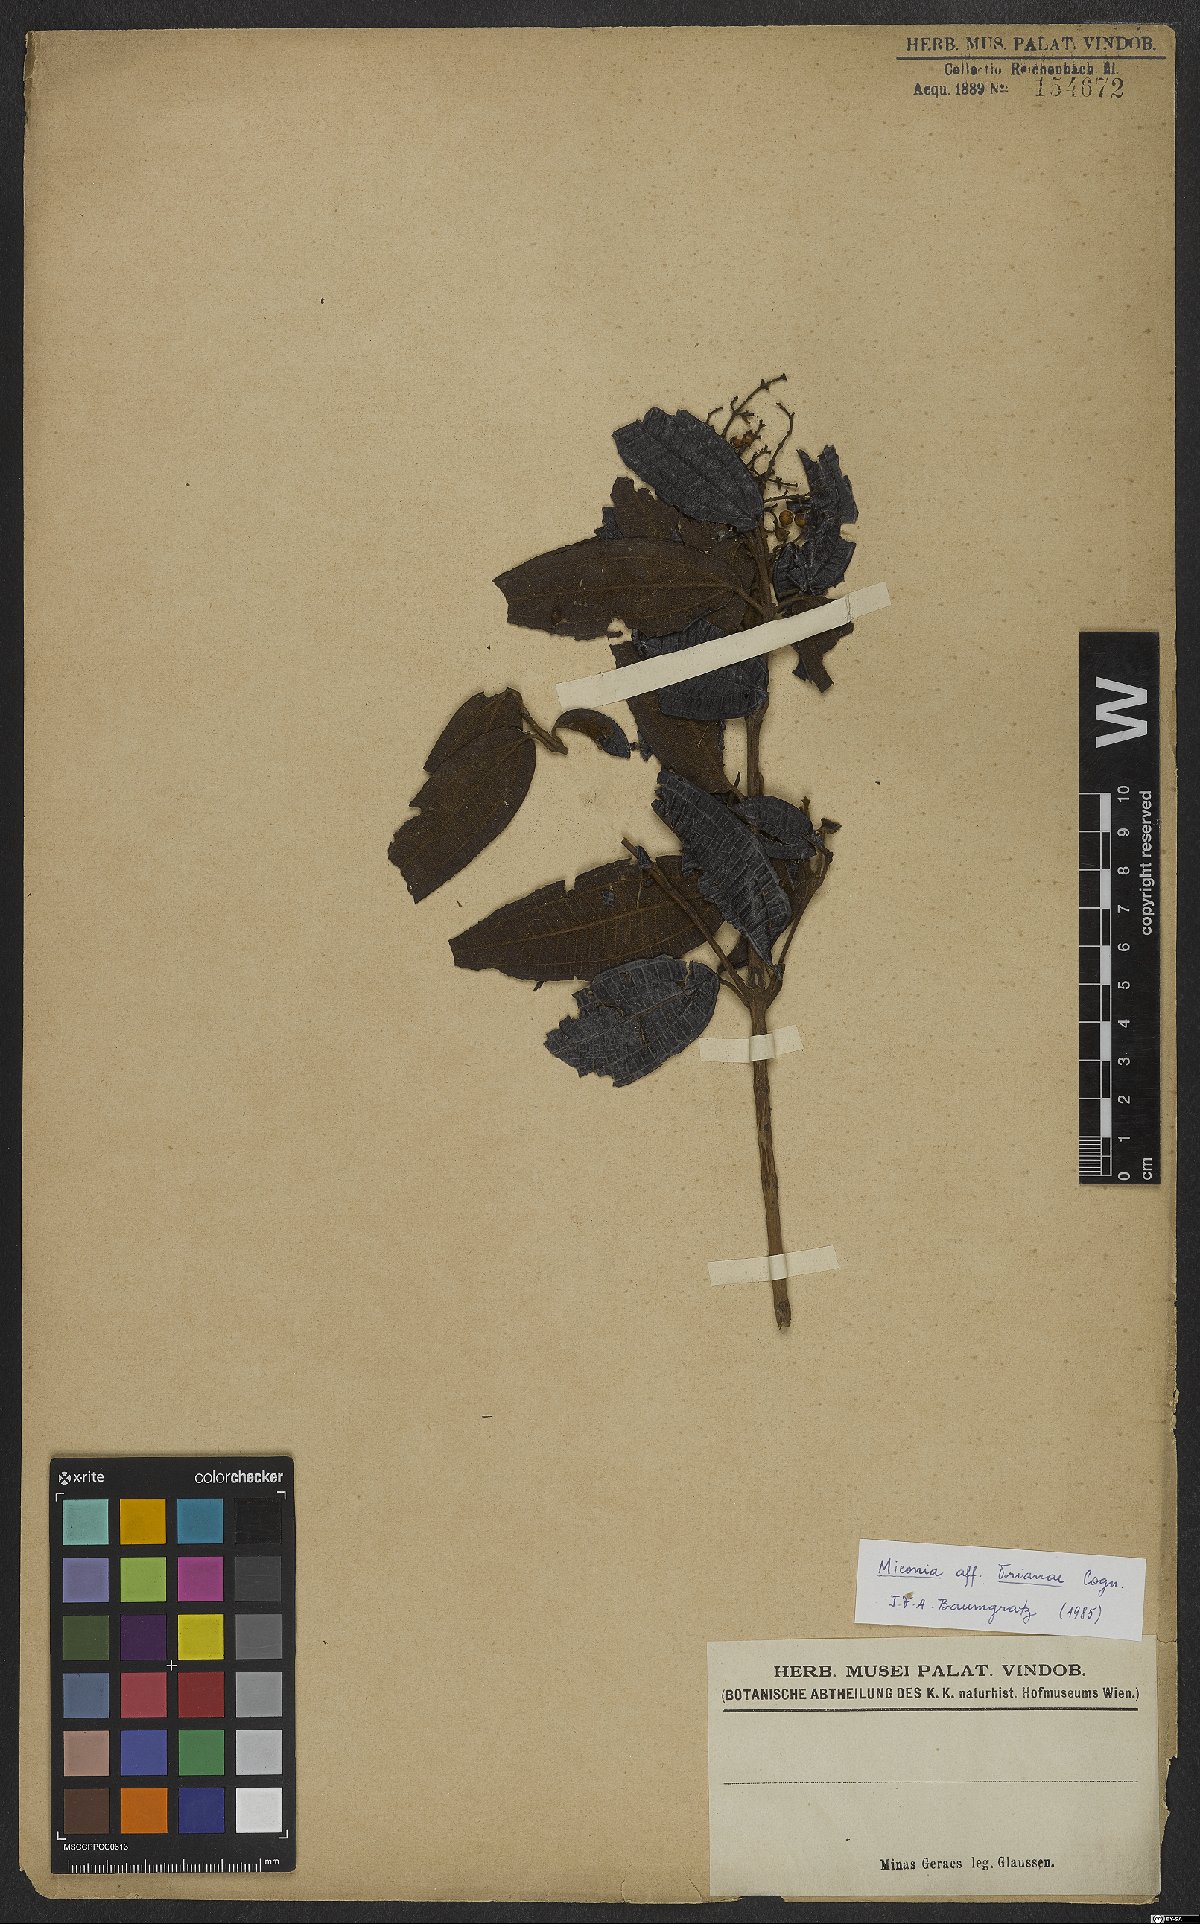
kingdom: Plantae
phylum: Tracheophyta
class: Magnoliopsida
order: Myrtales
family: Melastomataceae
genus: Miconia
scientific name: Miconia trianae
